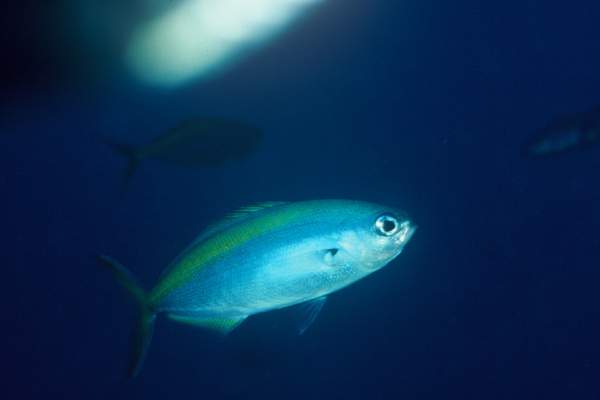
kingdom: Animalia
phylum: Chordata
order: Perciformes
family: Kyphosidae
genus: Labracoglossa
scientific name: Labracoglossa nitida
